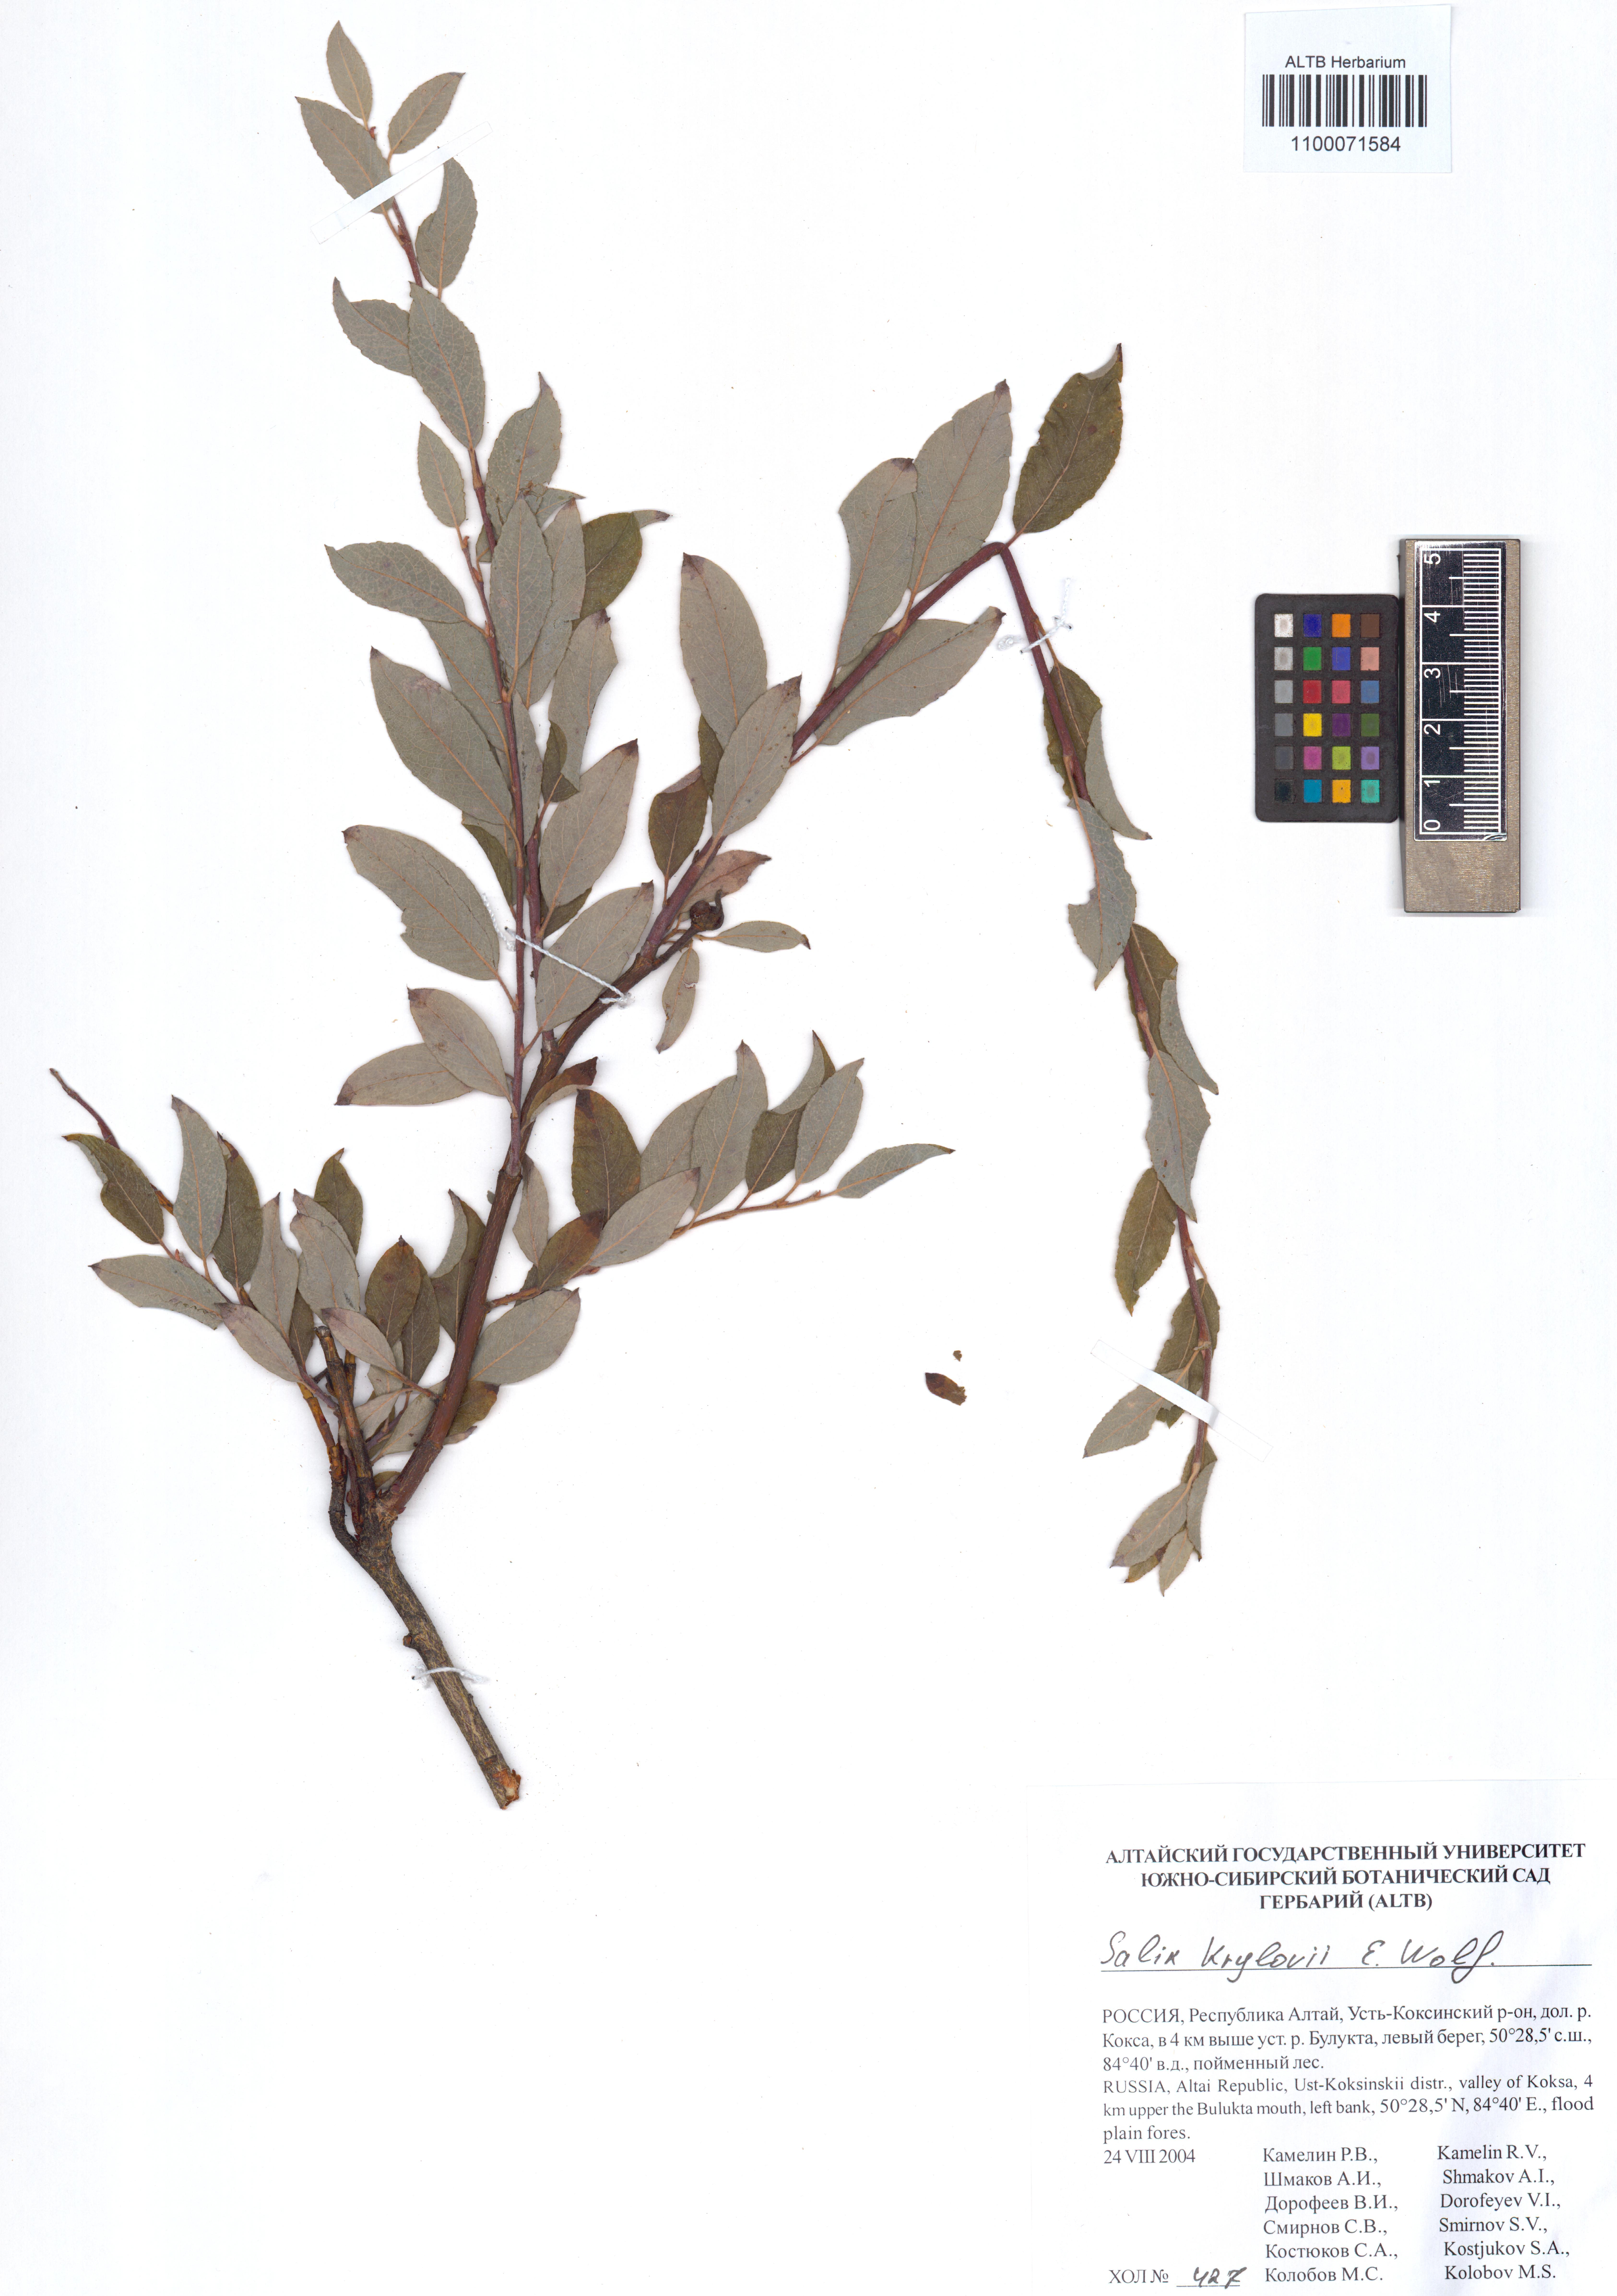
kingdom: Plantae
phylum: Tracheophyta
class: Magnoliopsida
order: Malpighiales
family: Salicaceae
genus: Salix
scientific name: Salix krylovii
